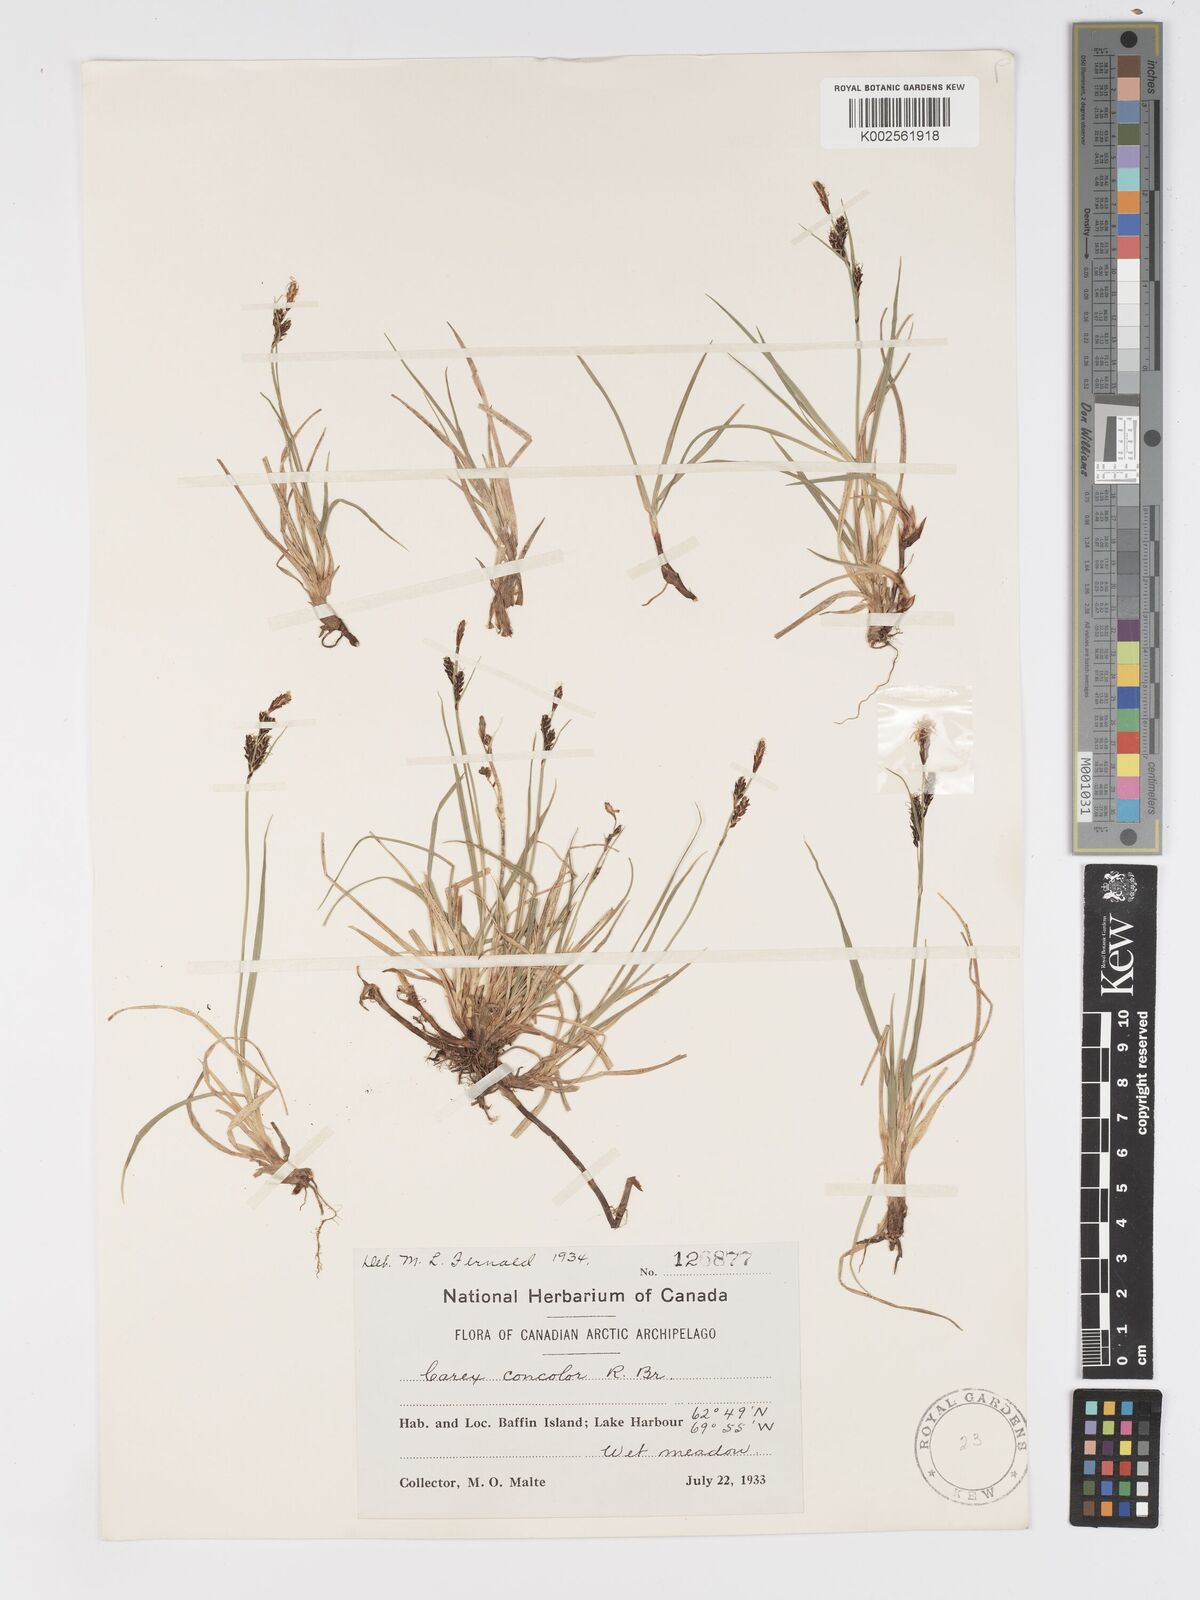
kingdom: Plantae
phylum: Tracheophyta
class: Liliopsida
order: Poales
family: Cyperaceae
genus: Carex
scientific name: Carex bigelowii
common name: Stiff sedge
